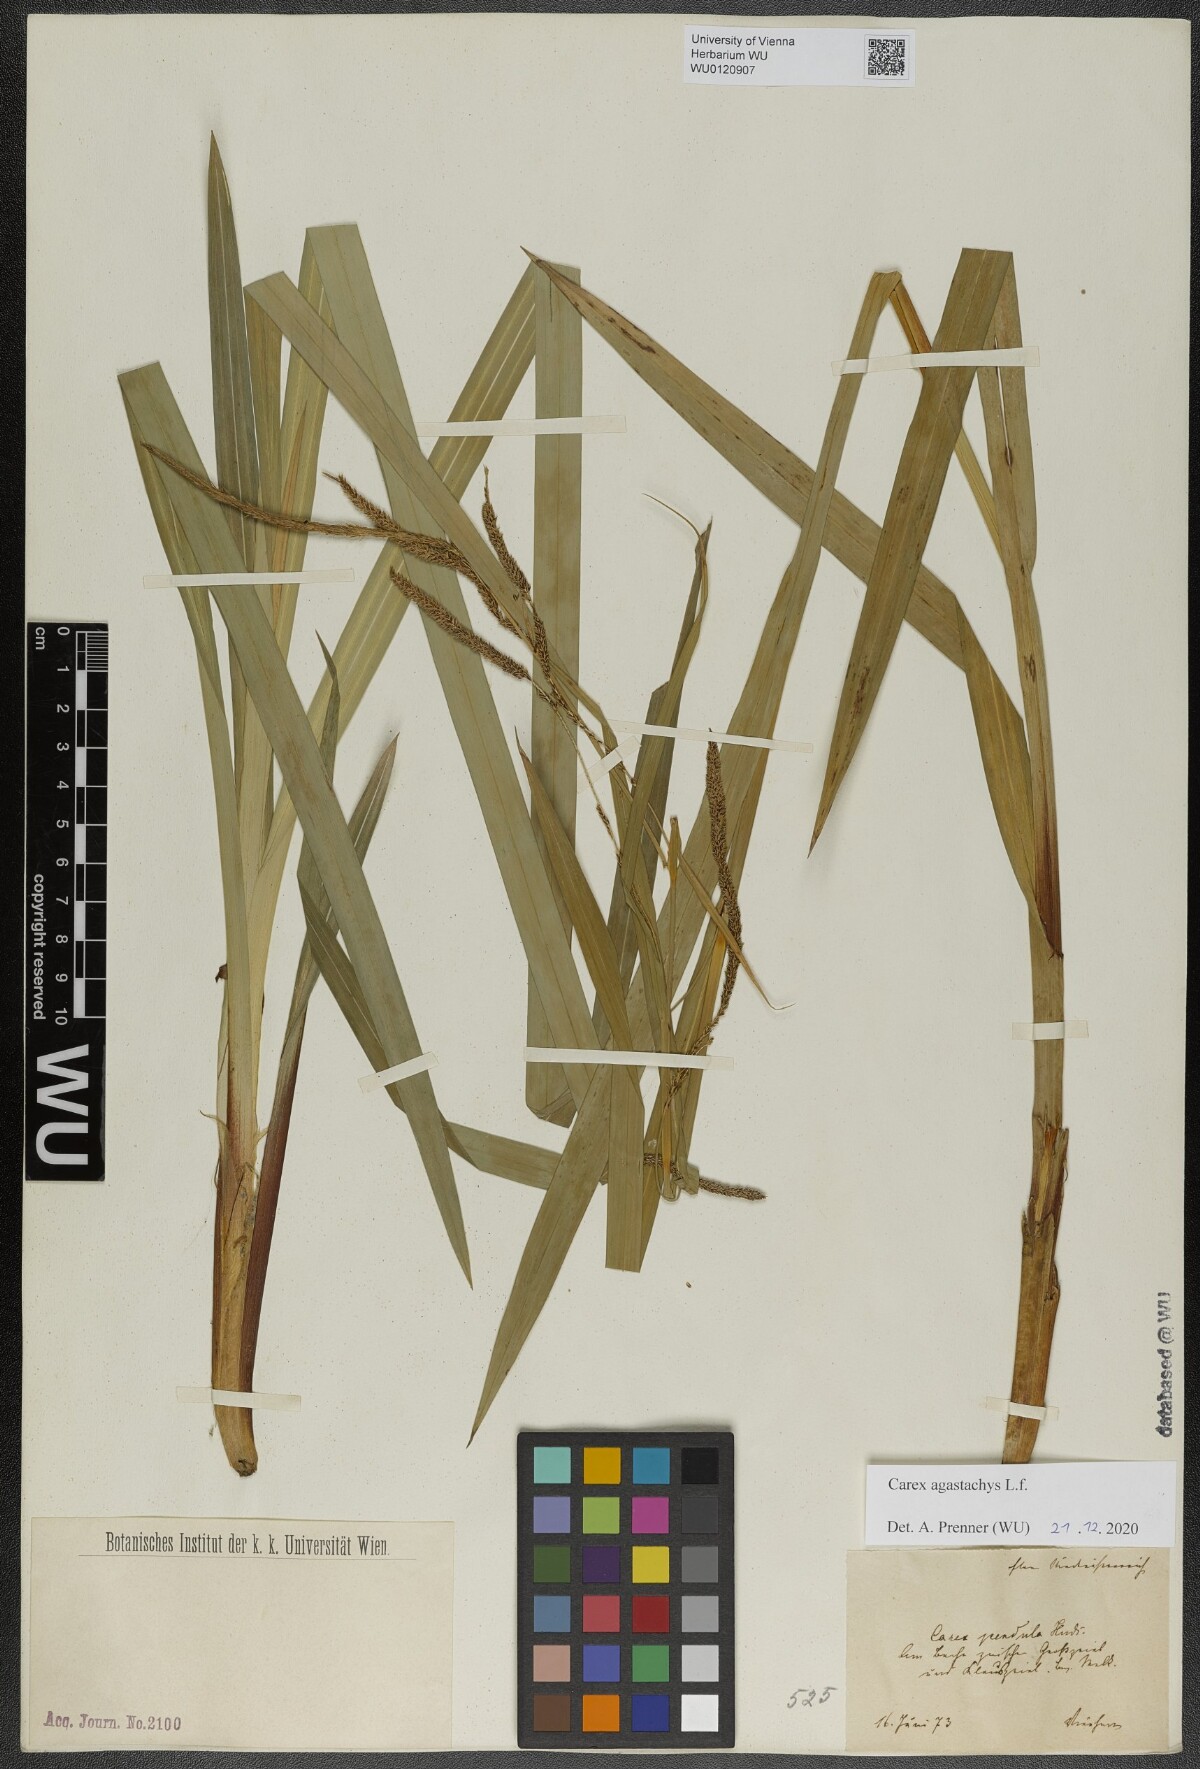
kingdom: Plantae
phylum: Tracheophyta
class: Liliopsida
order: Poales
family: Cyperaceae
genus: Carex
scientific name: Carex agastachys
